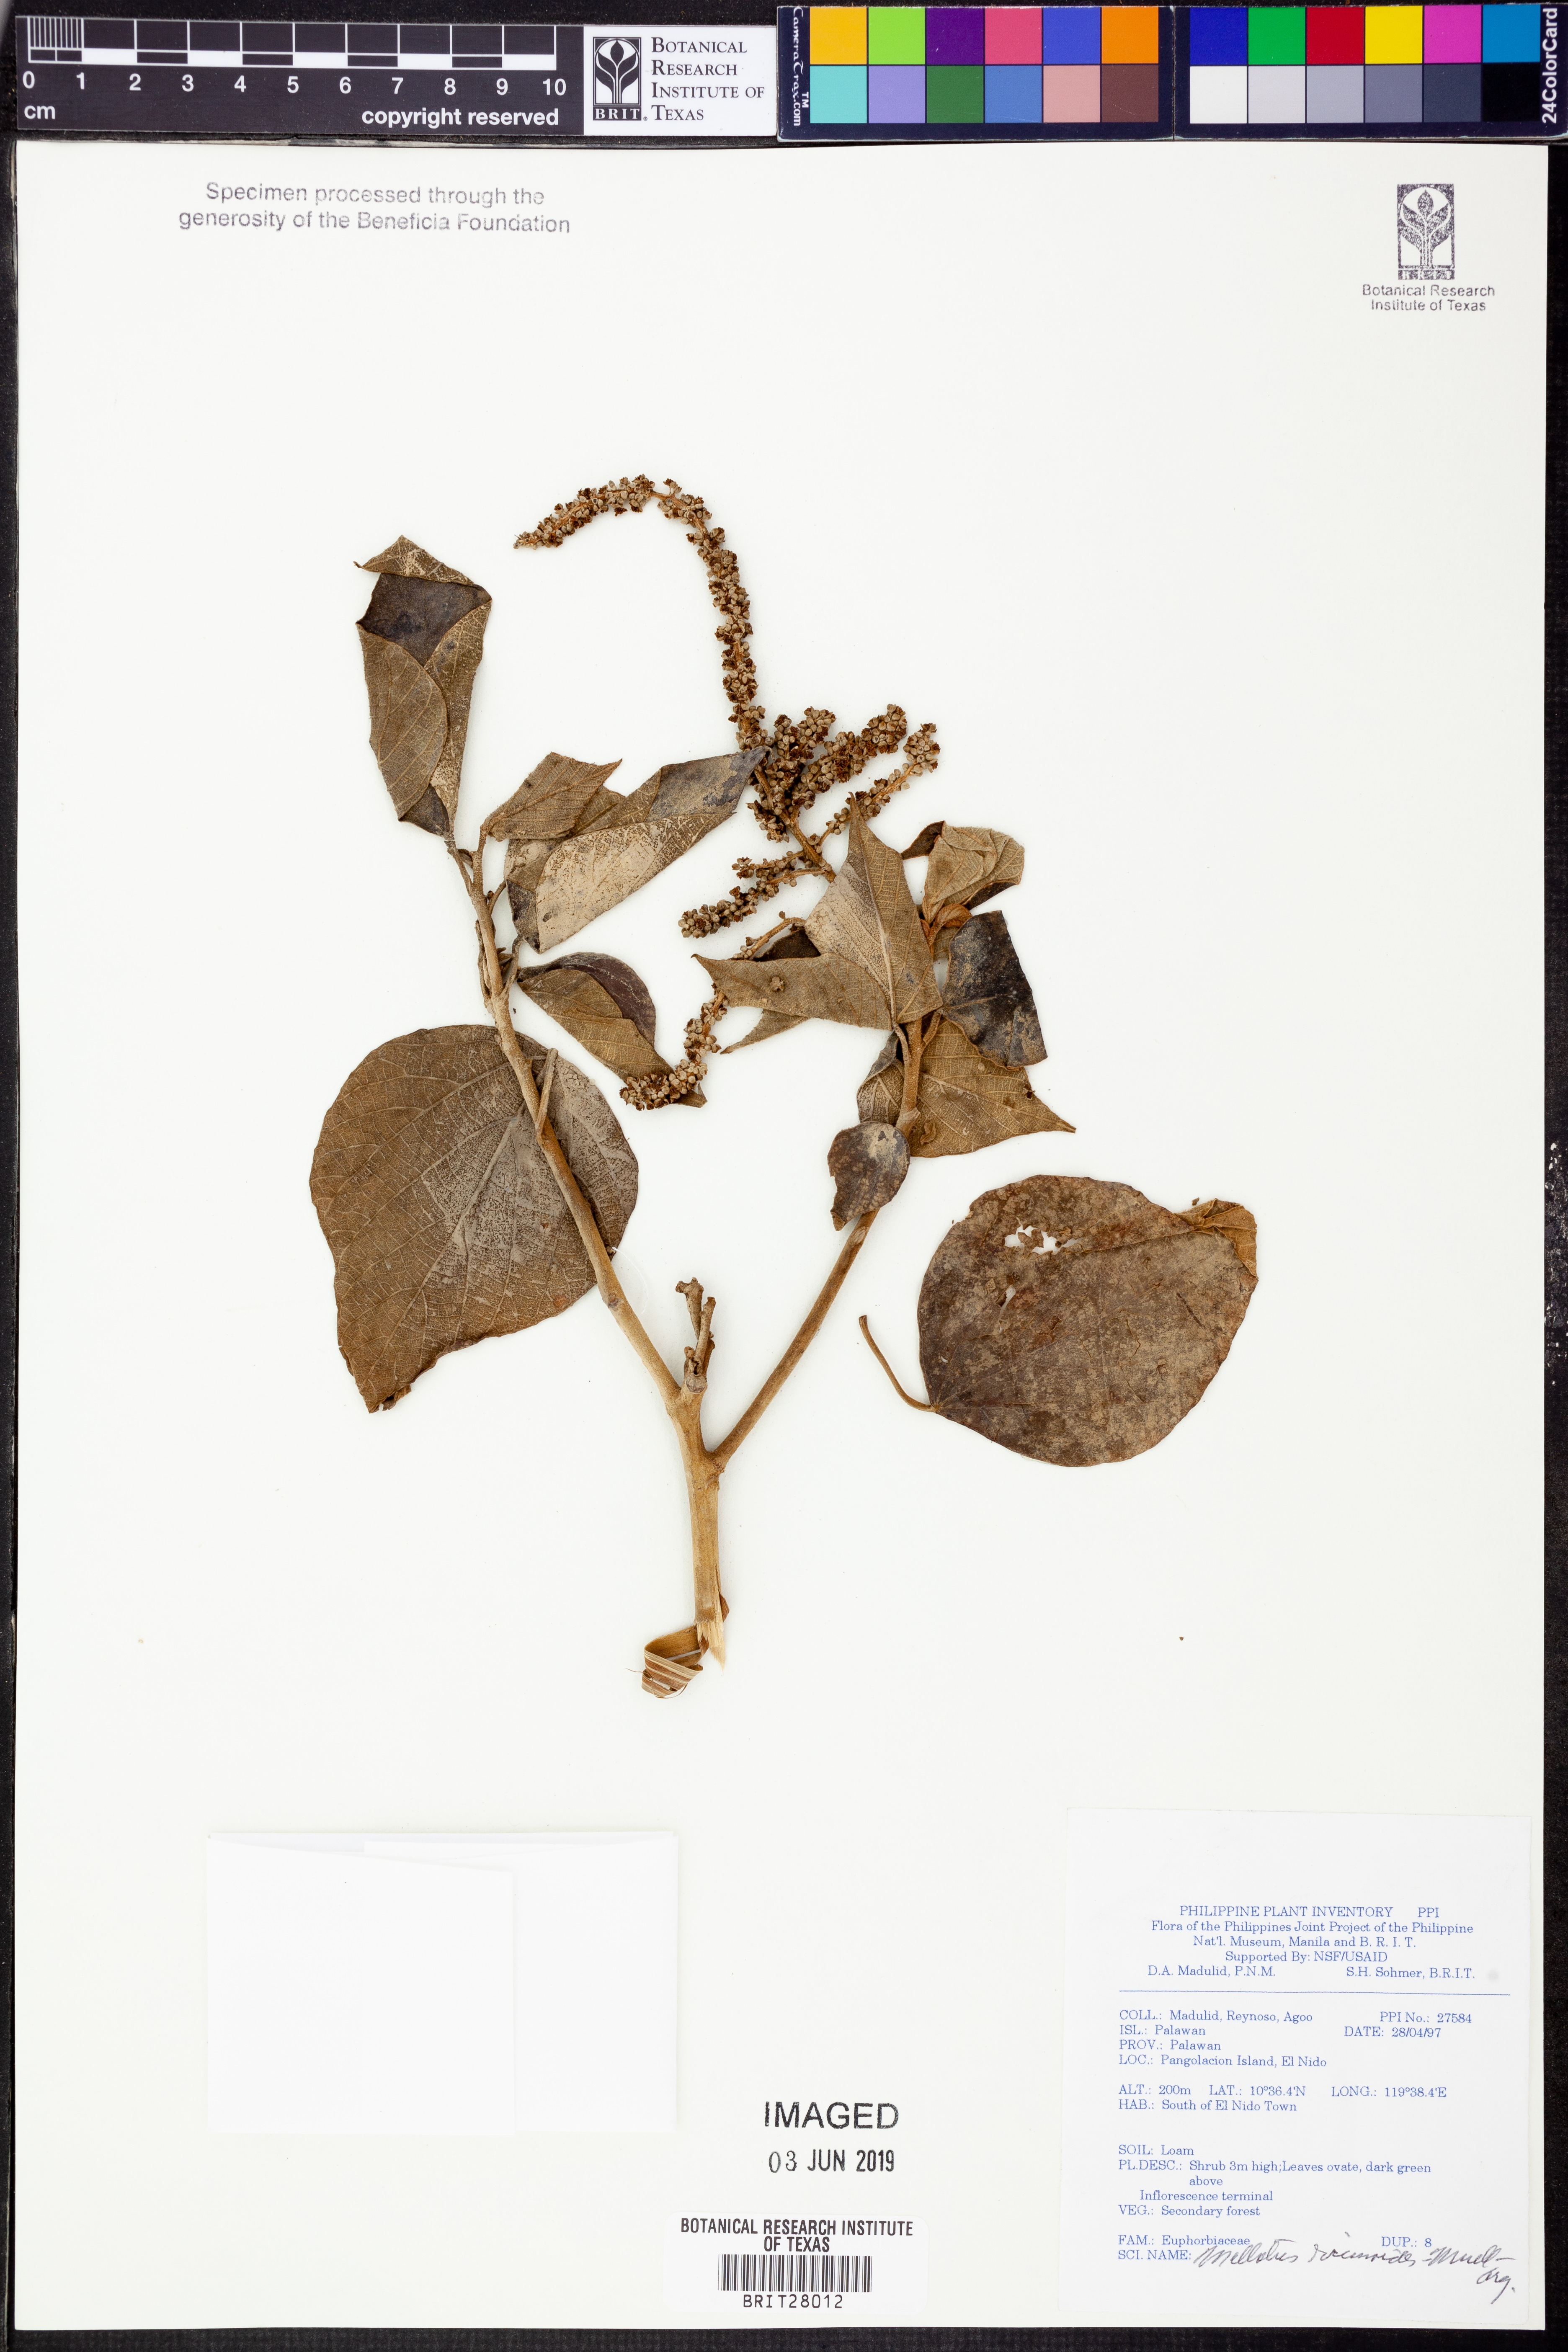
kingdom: Plantae
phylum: Tracheophyta
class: Magnoliopsida
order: Malpighiales
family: Euphorbiaceae
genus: Mallotus
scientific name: Mallotus mollissimus
